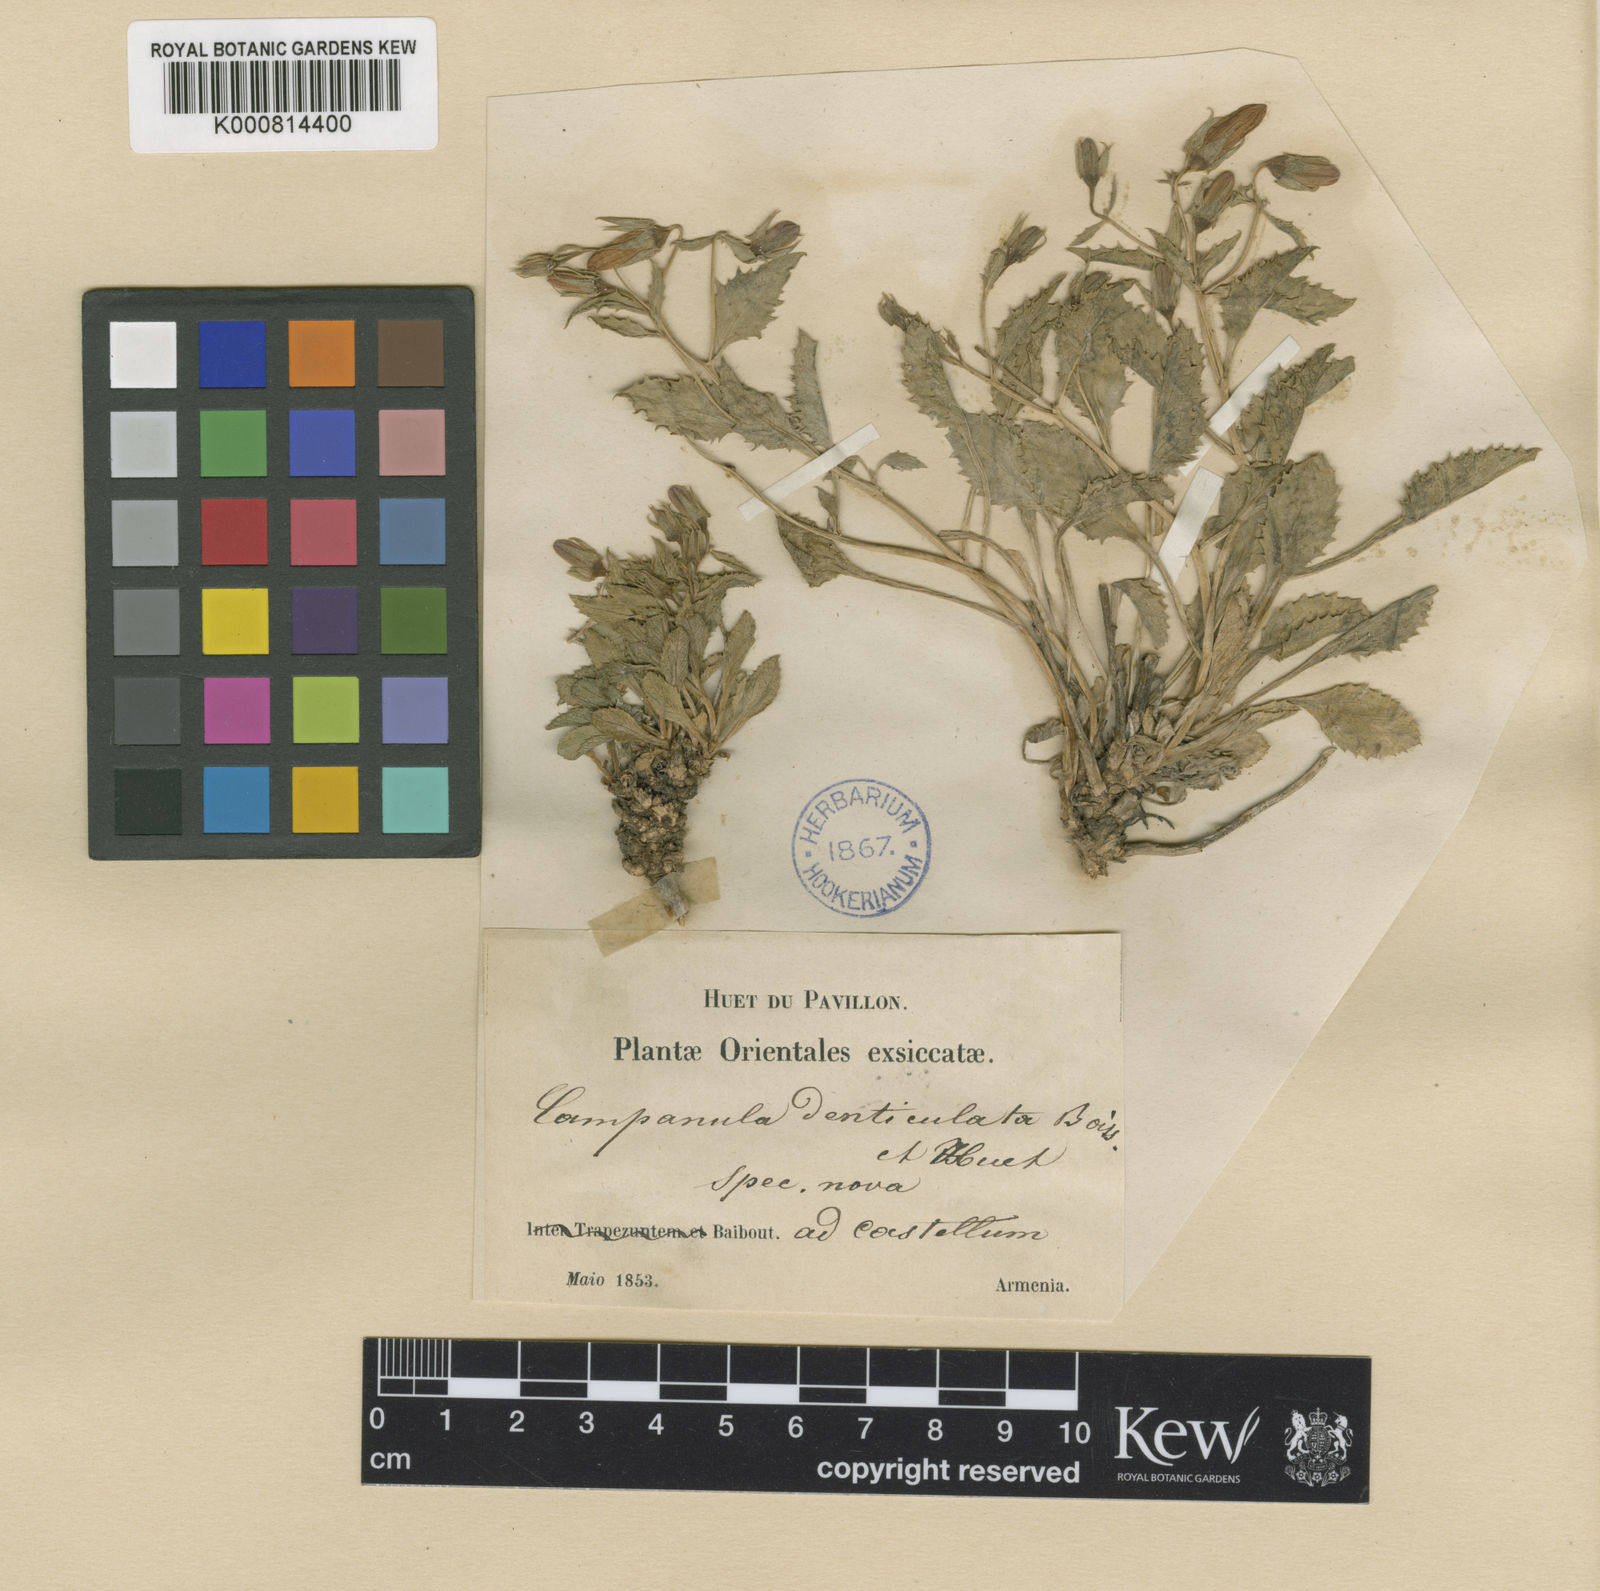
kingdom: Plantae
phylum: Tracheophyta
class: Magnoliopsida
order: Asterales
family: Campanulaceae
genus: Campanula
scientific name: Campanula betulifolia
